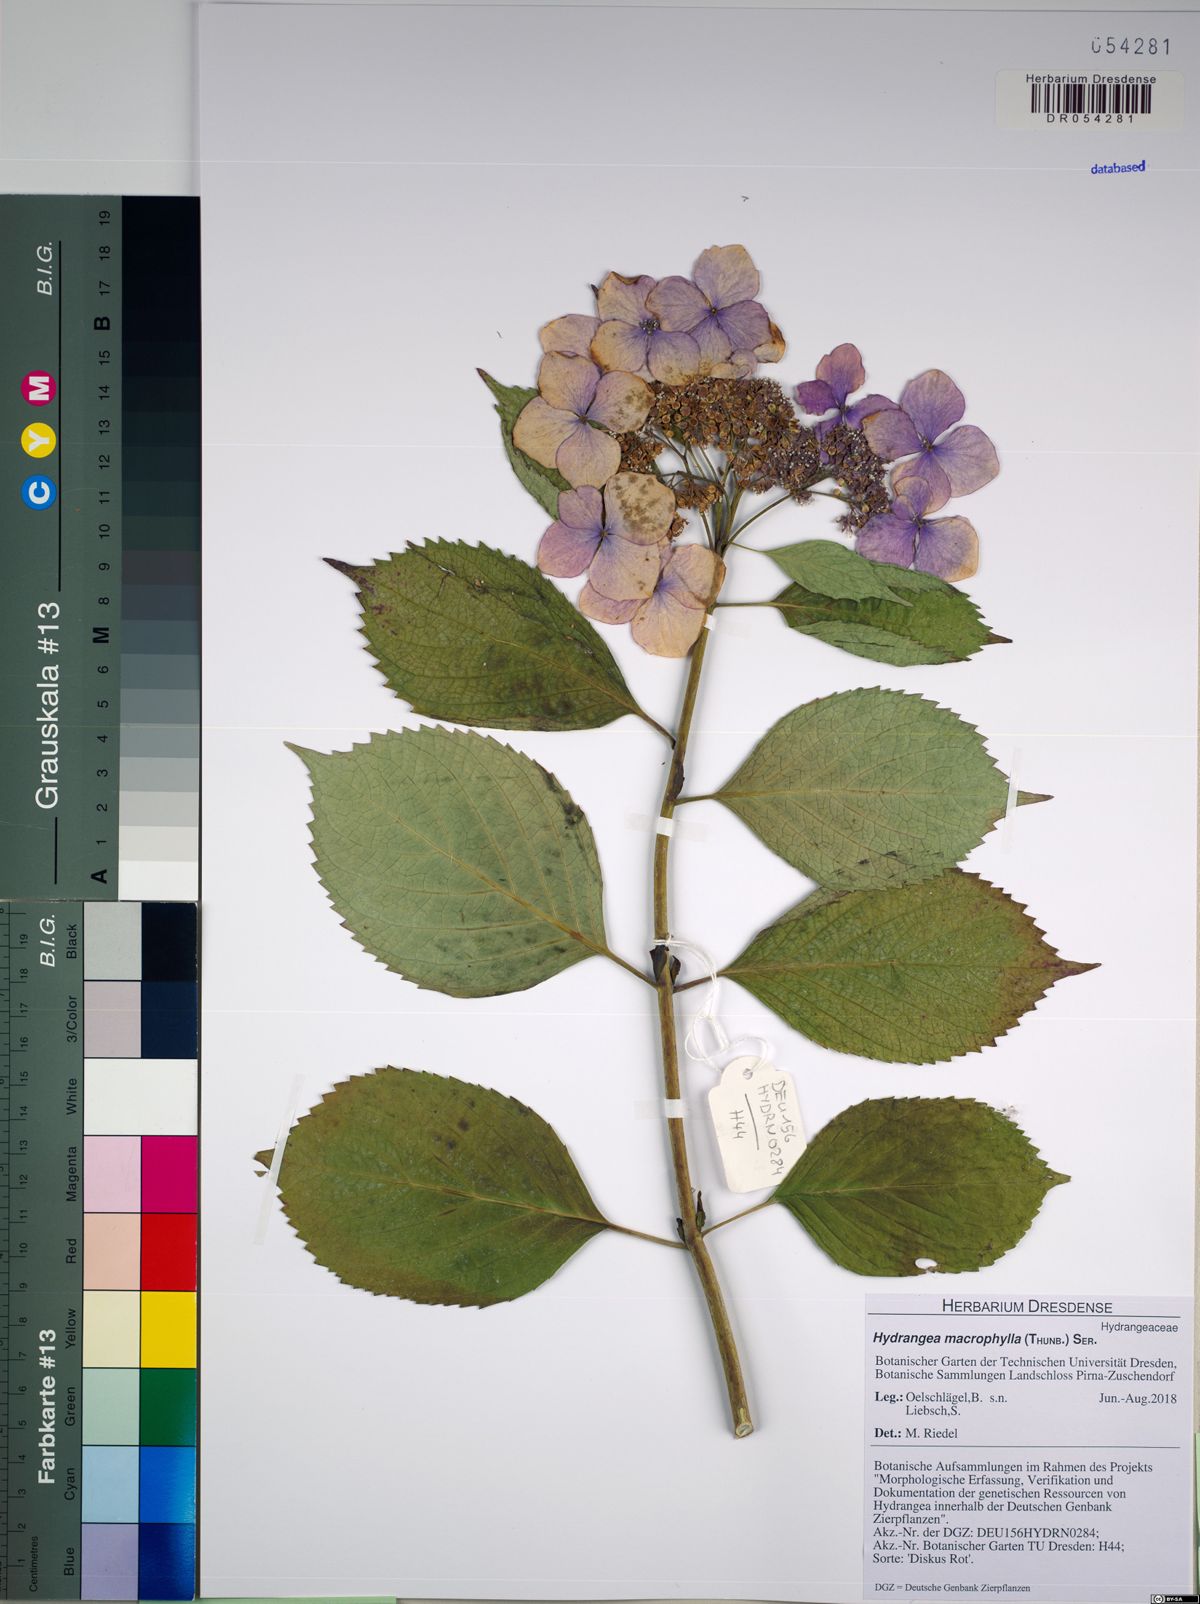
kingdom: Plantae
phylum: Tracheophyta
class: Magnoliopsida
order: Cornales
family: Hydrangeaceae
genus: Hydrangea
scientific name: Hydrangea macrophylla
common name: Hydrangea
